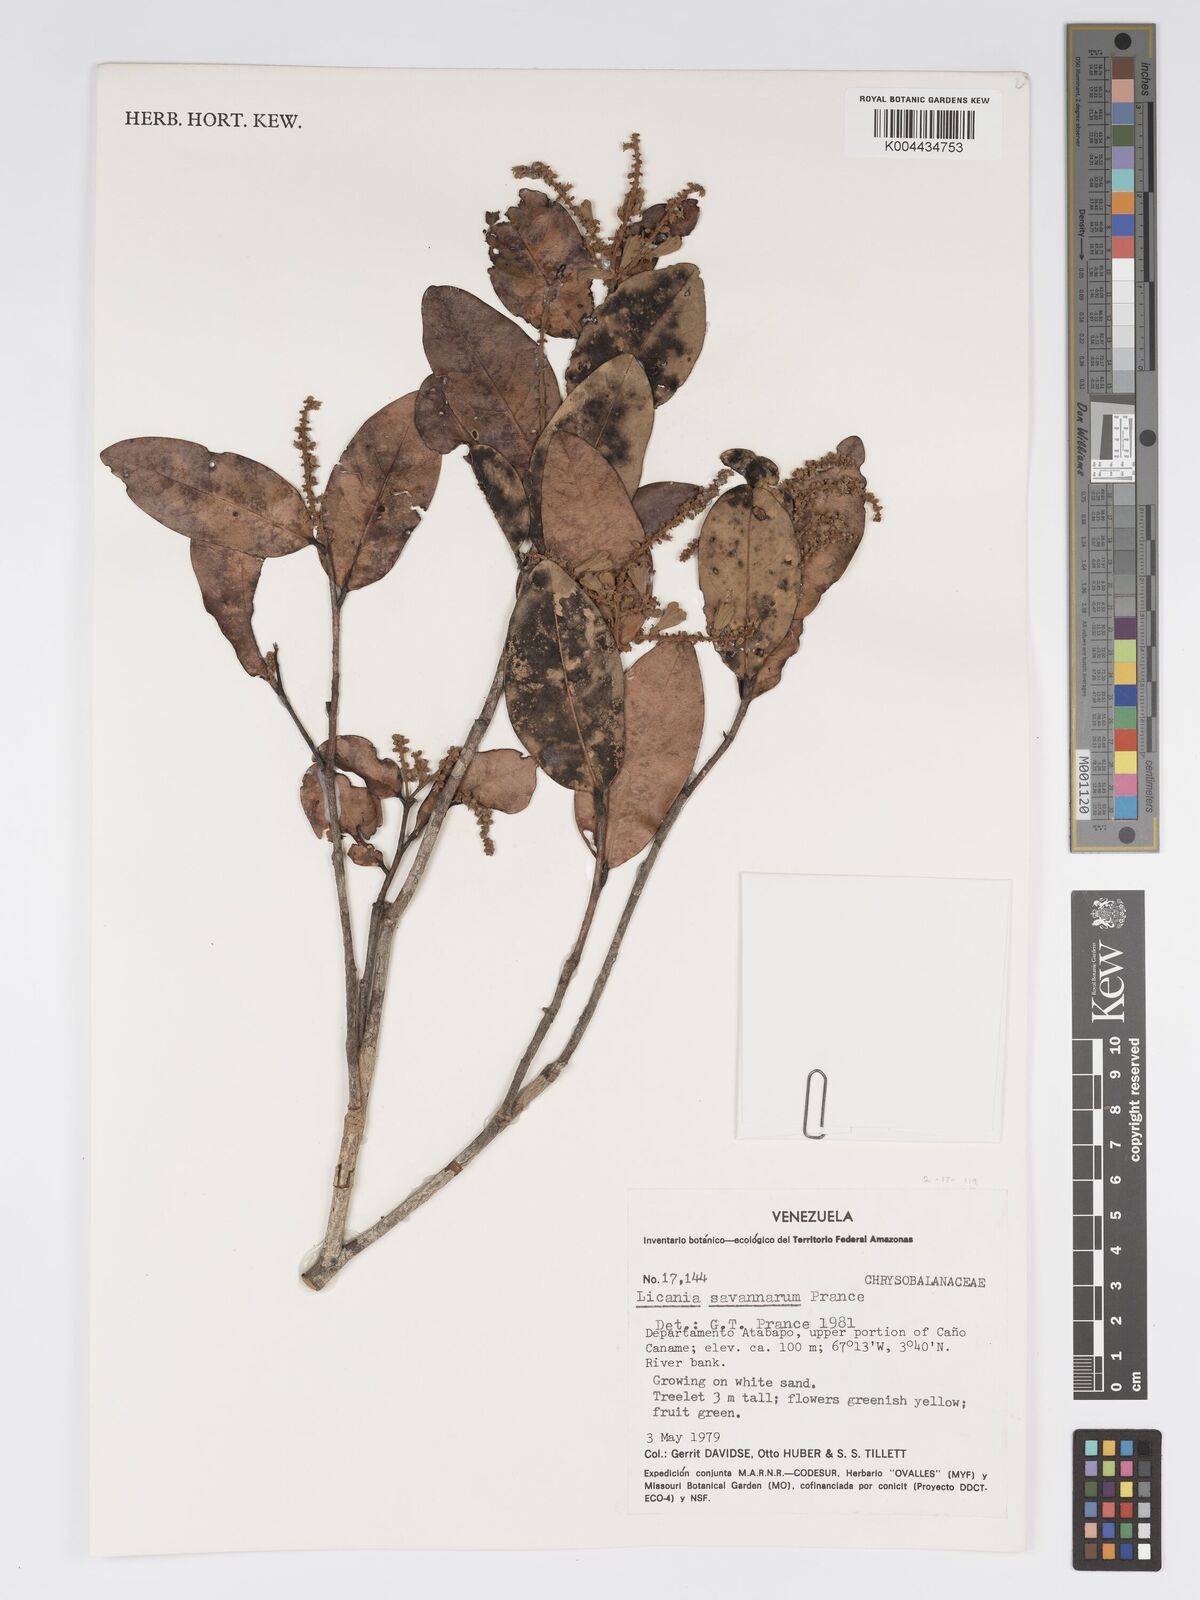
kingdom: Plantae
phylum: Tracheophyta
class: Magnoliopsida
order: Malpighiales
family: Chrysobalanaceae
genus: Licania
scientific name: Licania savannarum
